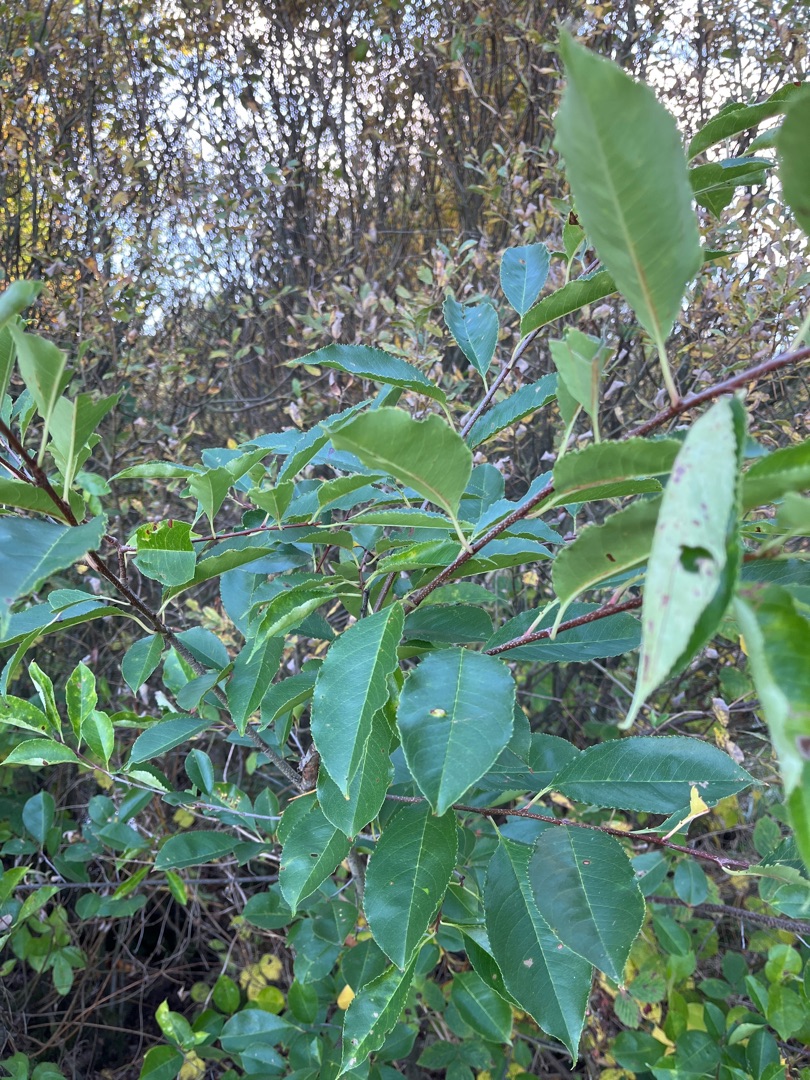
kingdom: Plantae
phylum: Tracheophyta
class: Magnoliopsida
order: Rosales
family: Rosaceae
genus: Prunus
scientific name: Prunus serotina
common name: Glansbladet hæg
